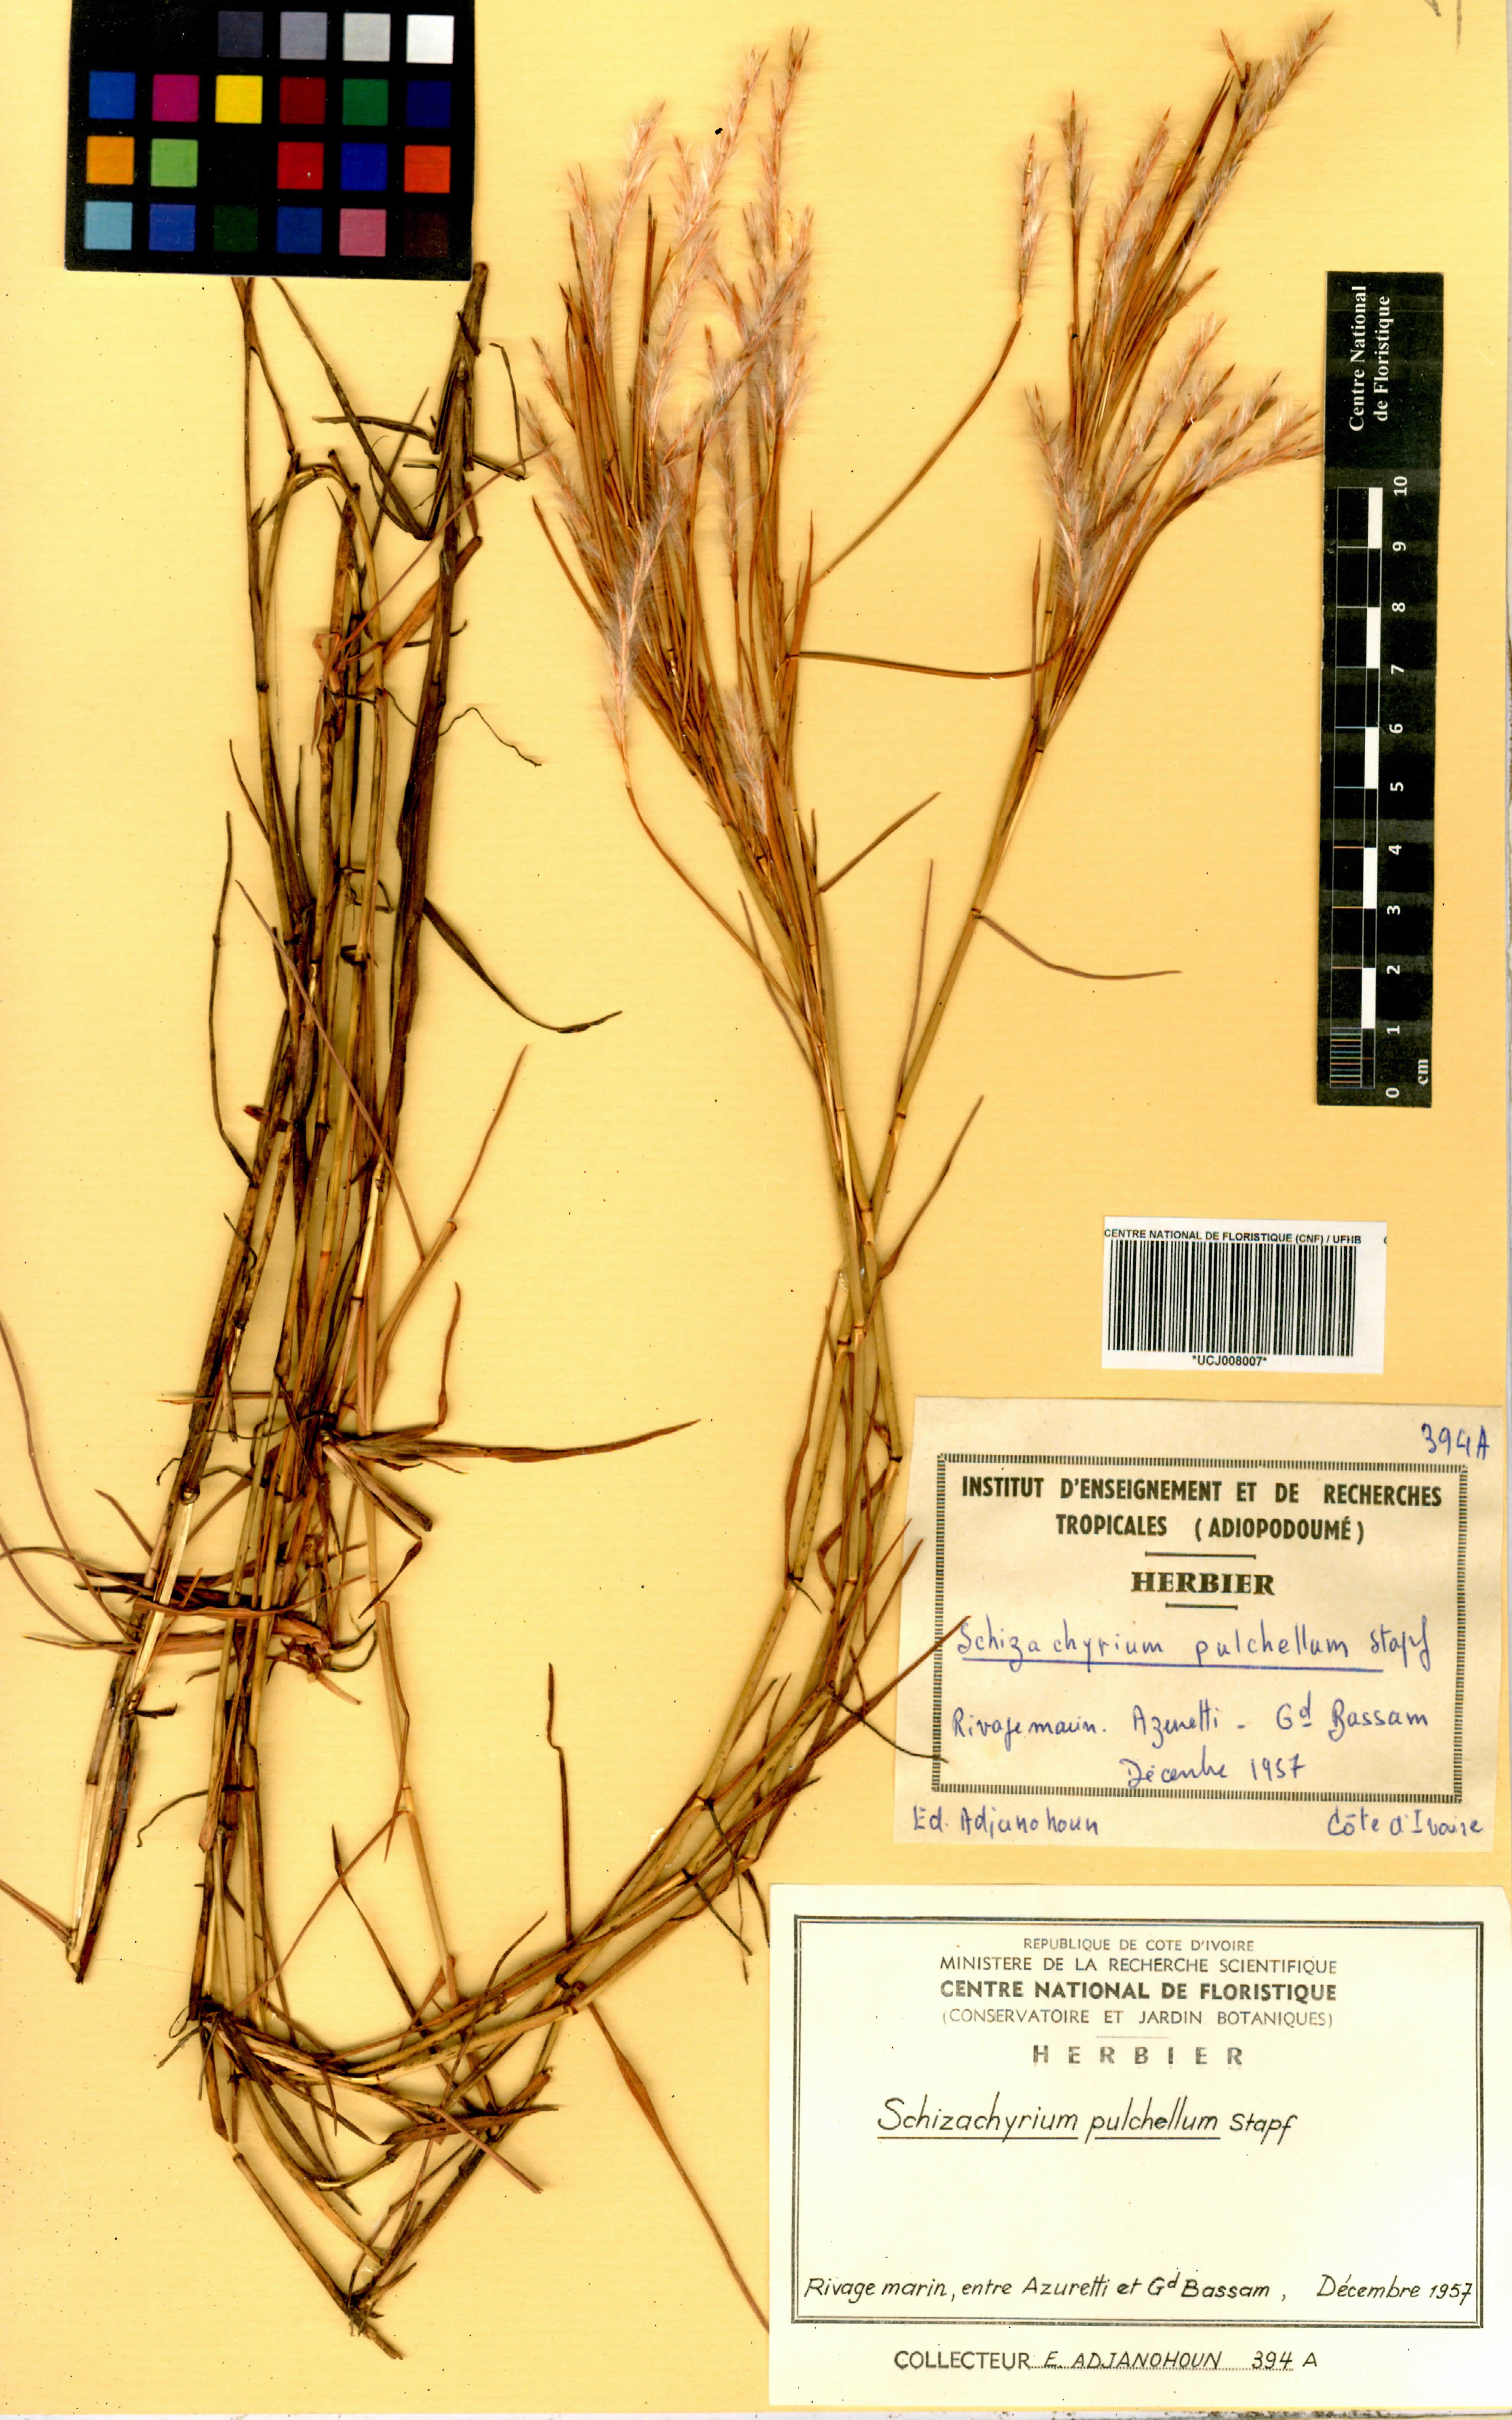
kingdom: Plantae
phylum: Tracheophyta
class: Liliopsida
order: Poales
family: Poaceae
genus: Schizachyrium
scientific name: Schizachyrium pulchellum
